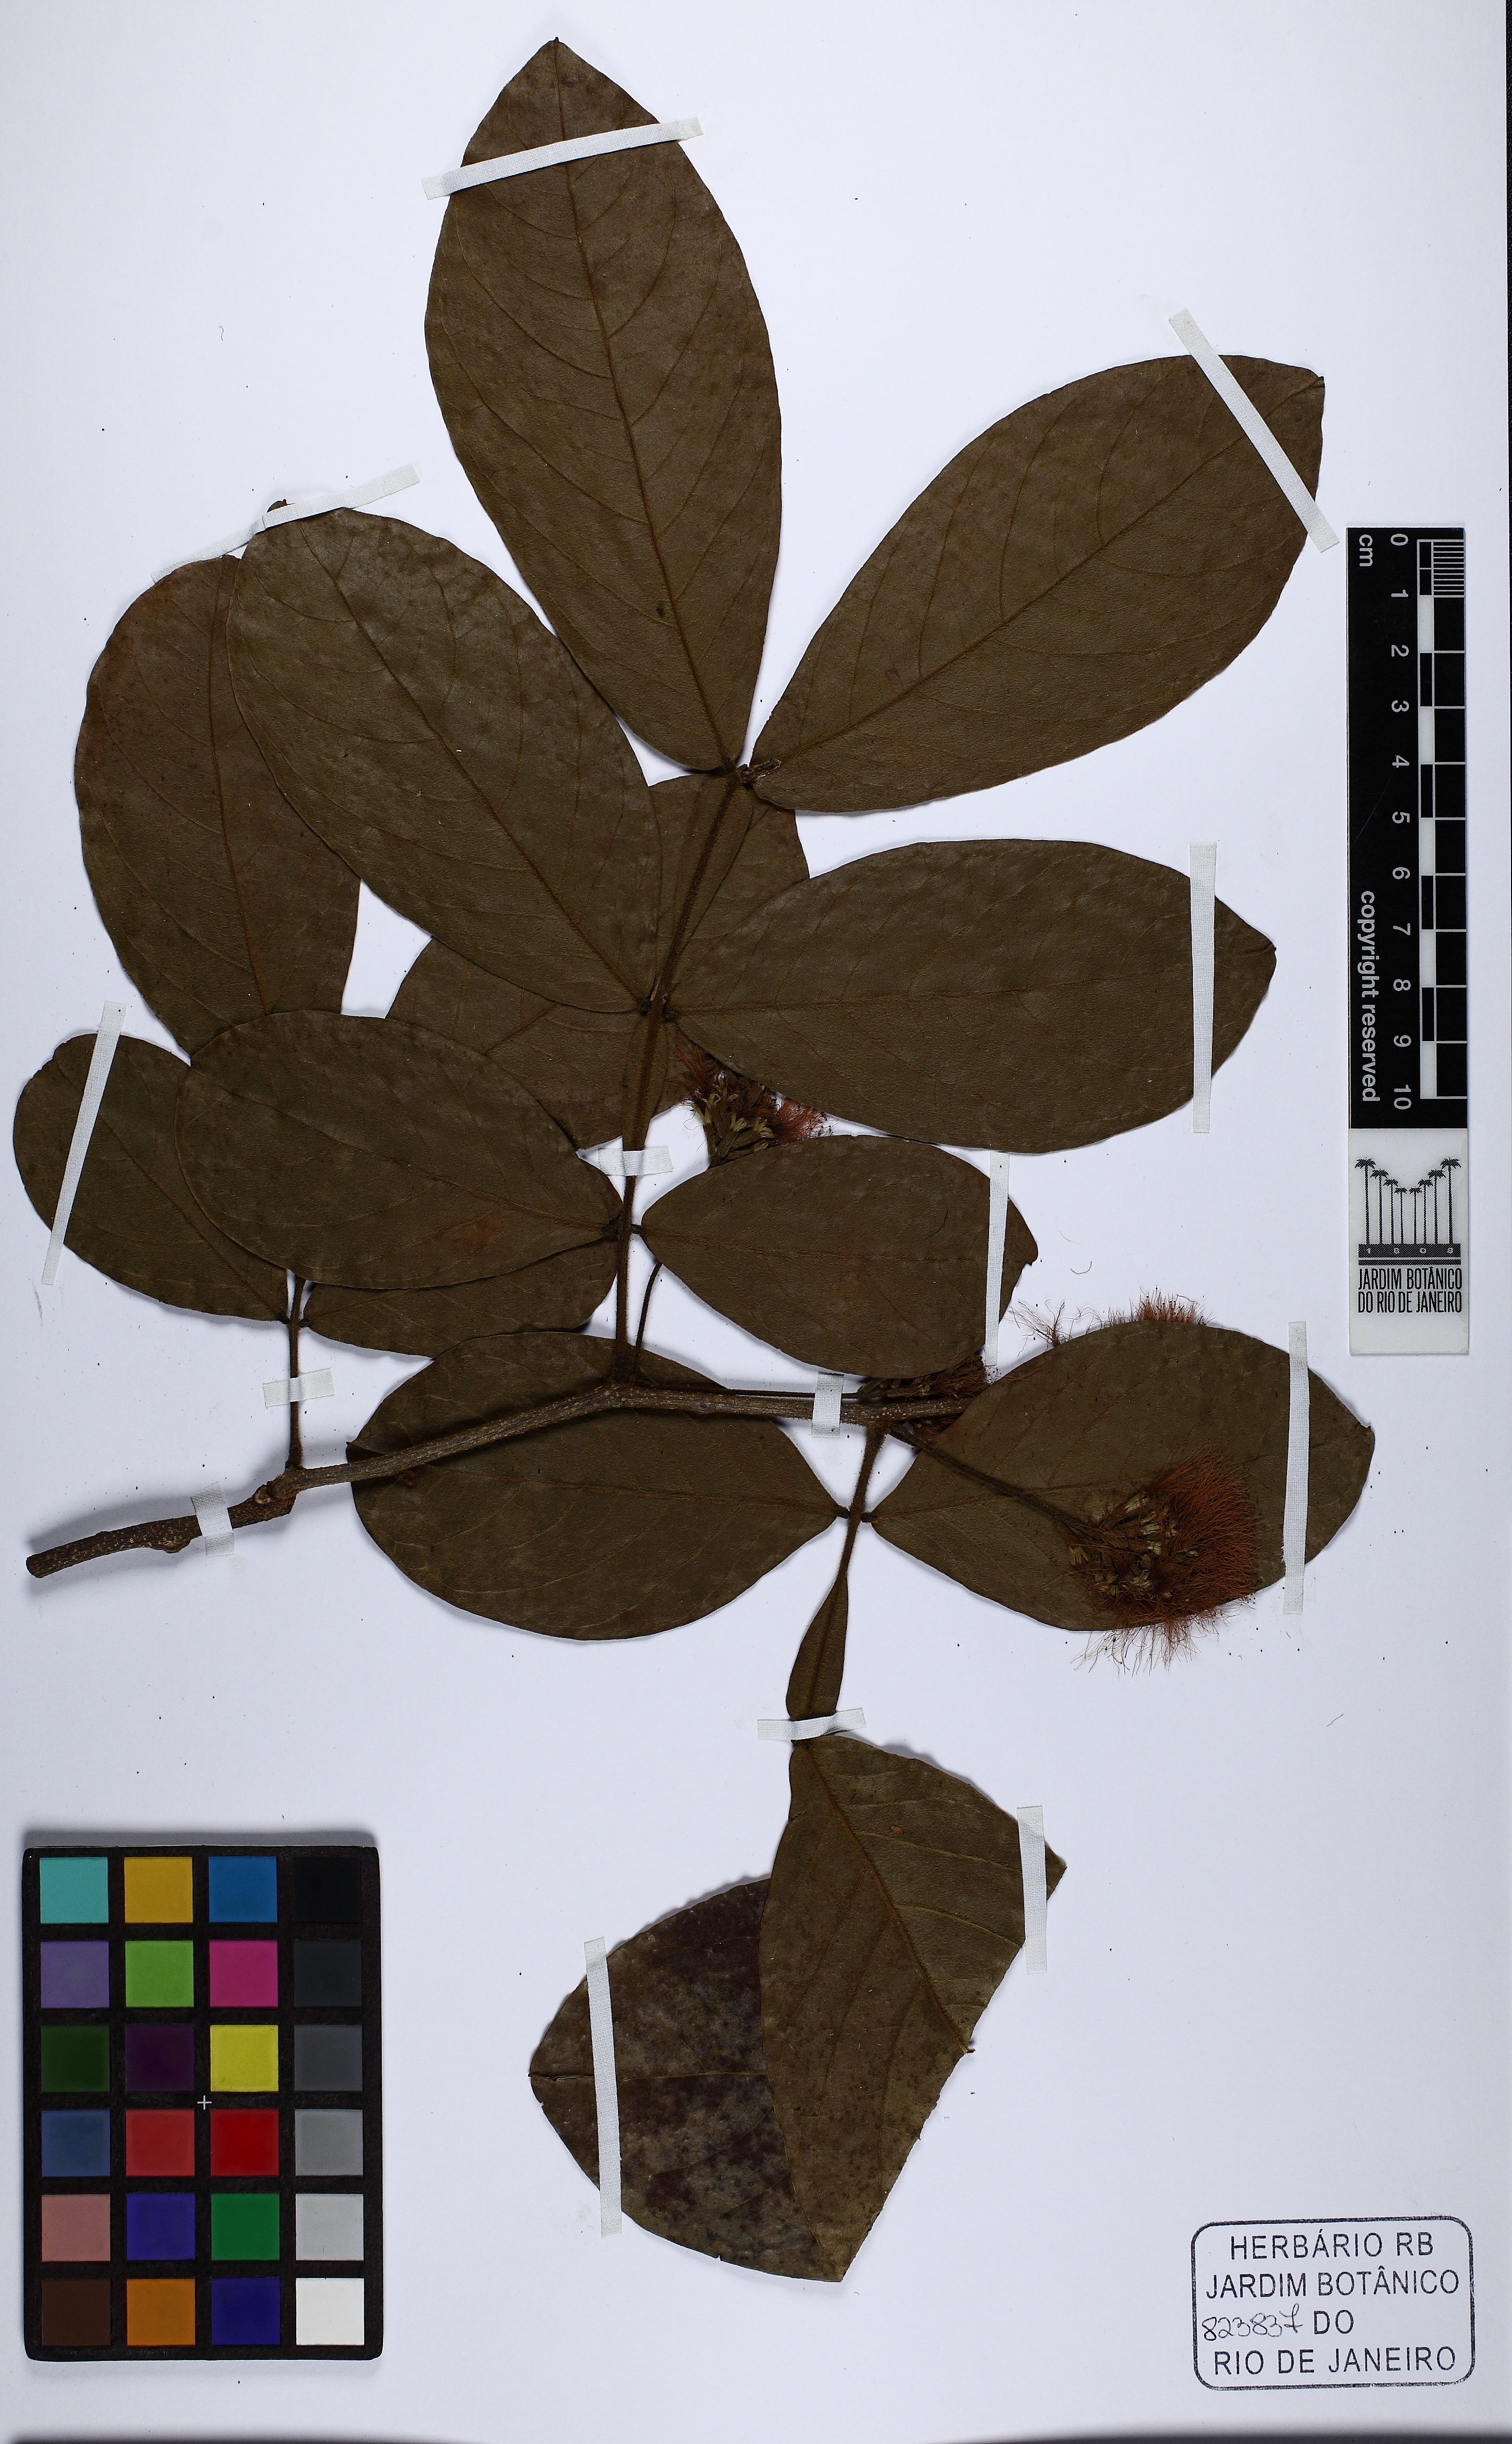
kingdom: Plantae
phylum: Tracheophyta
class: Magnoliopsida
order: Fabales
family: Fabaceae
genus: Inga
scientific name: Inga maritima
